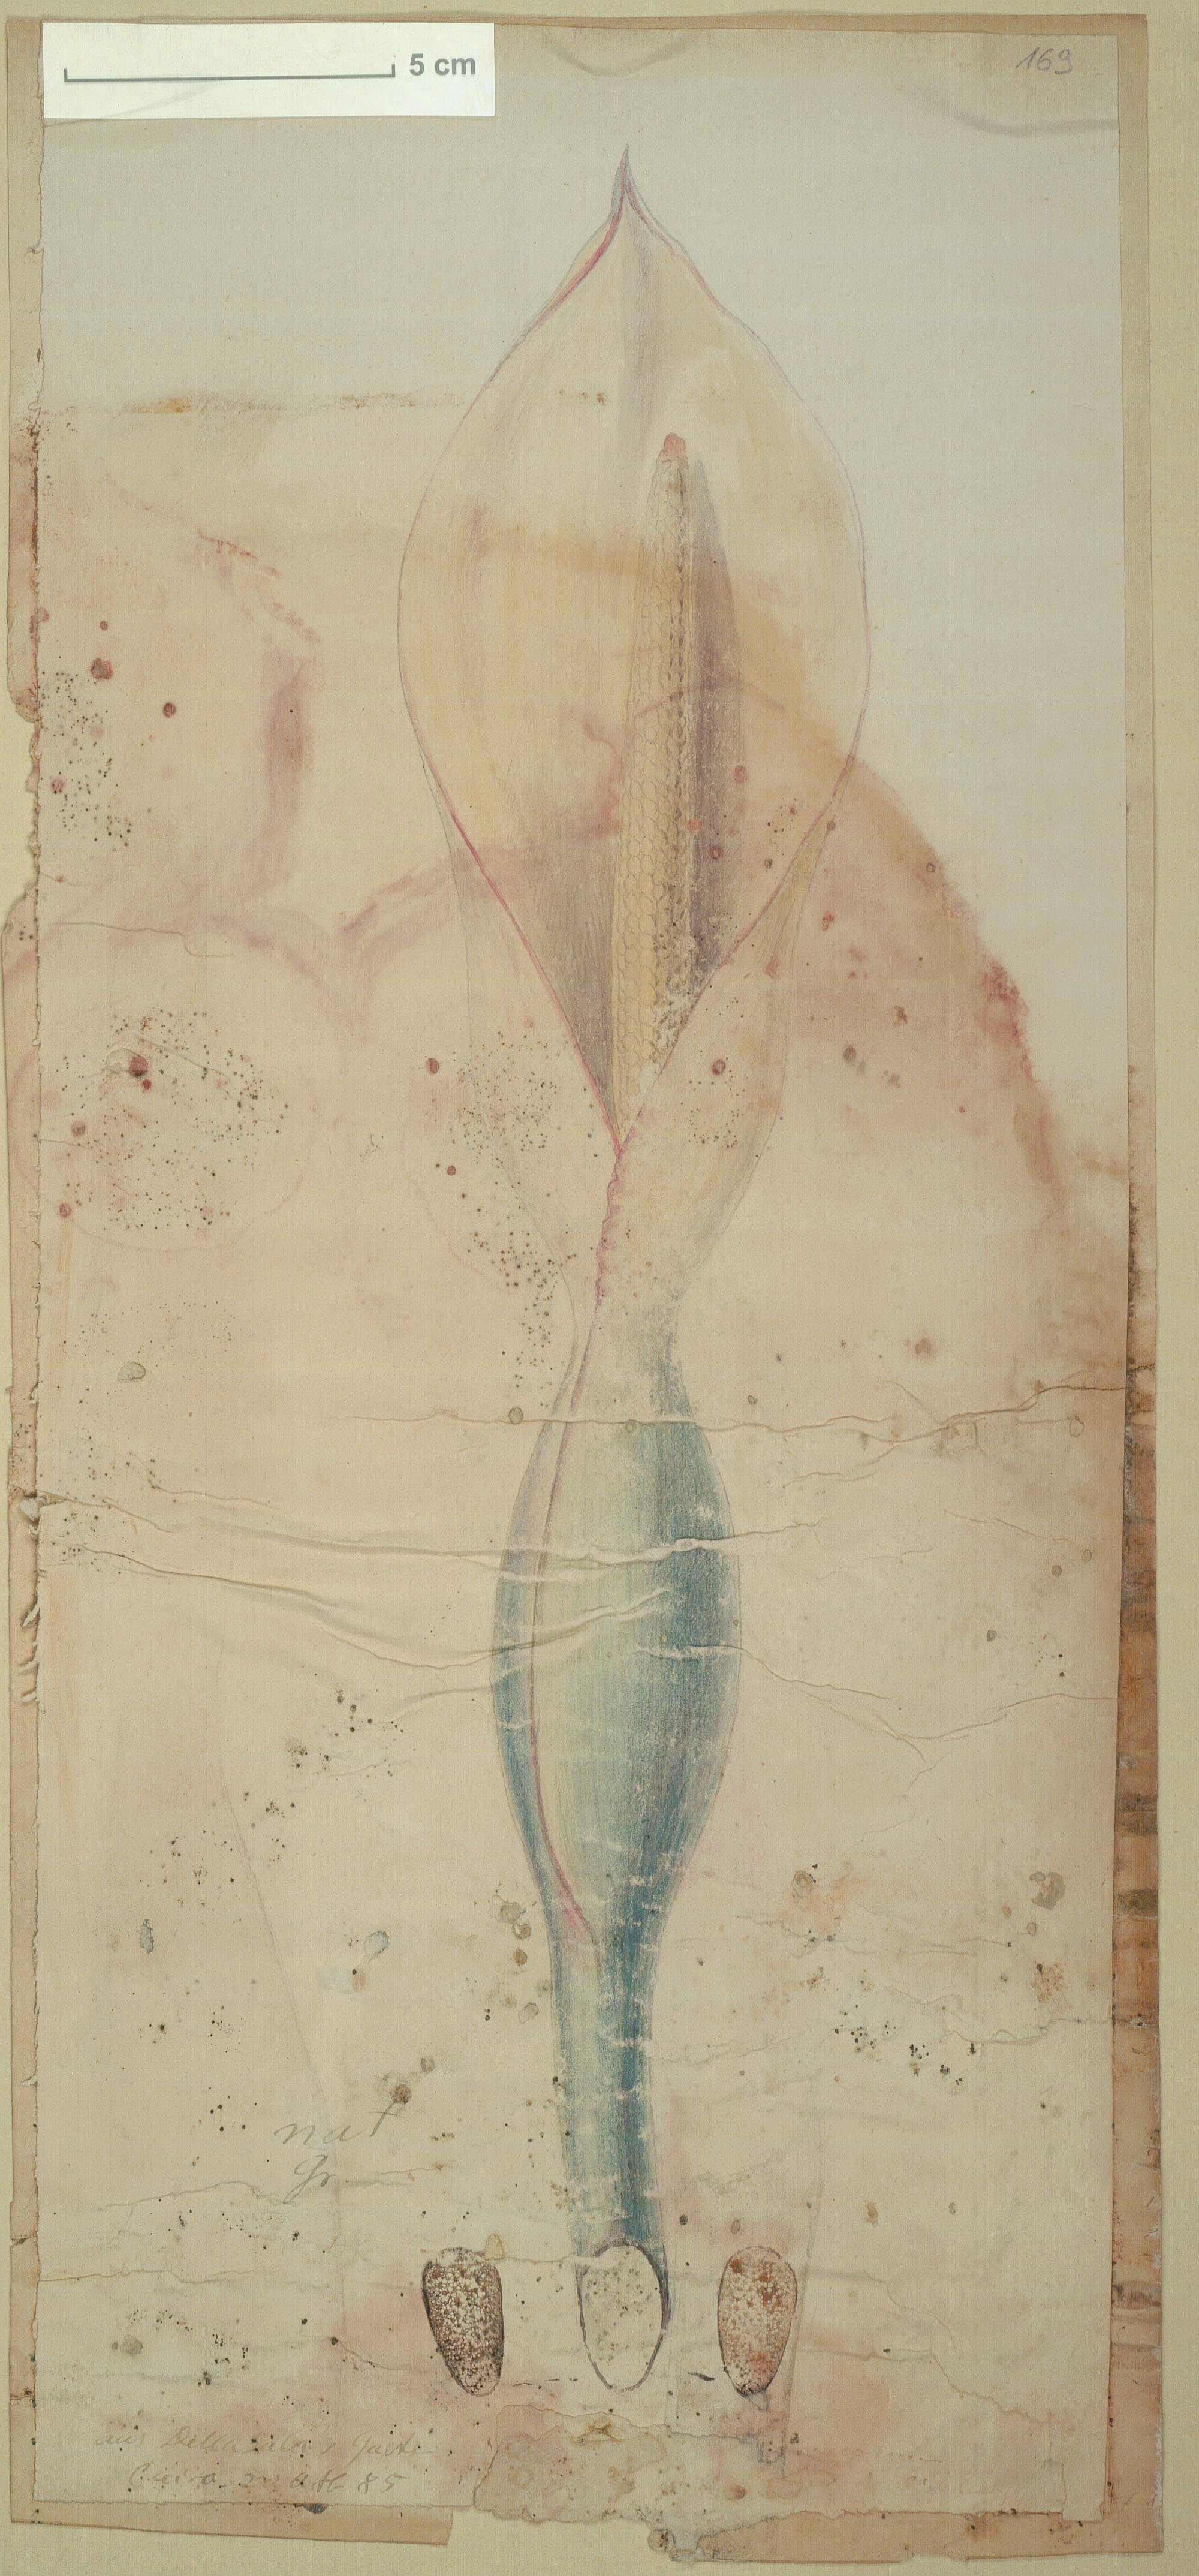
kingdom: Plantae
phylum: Tracheophyta
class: Liliopsida
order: Alismatales
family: Araceae
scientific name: Araceae
